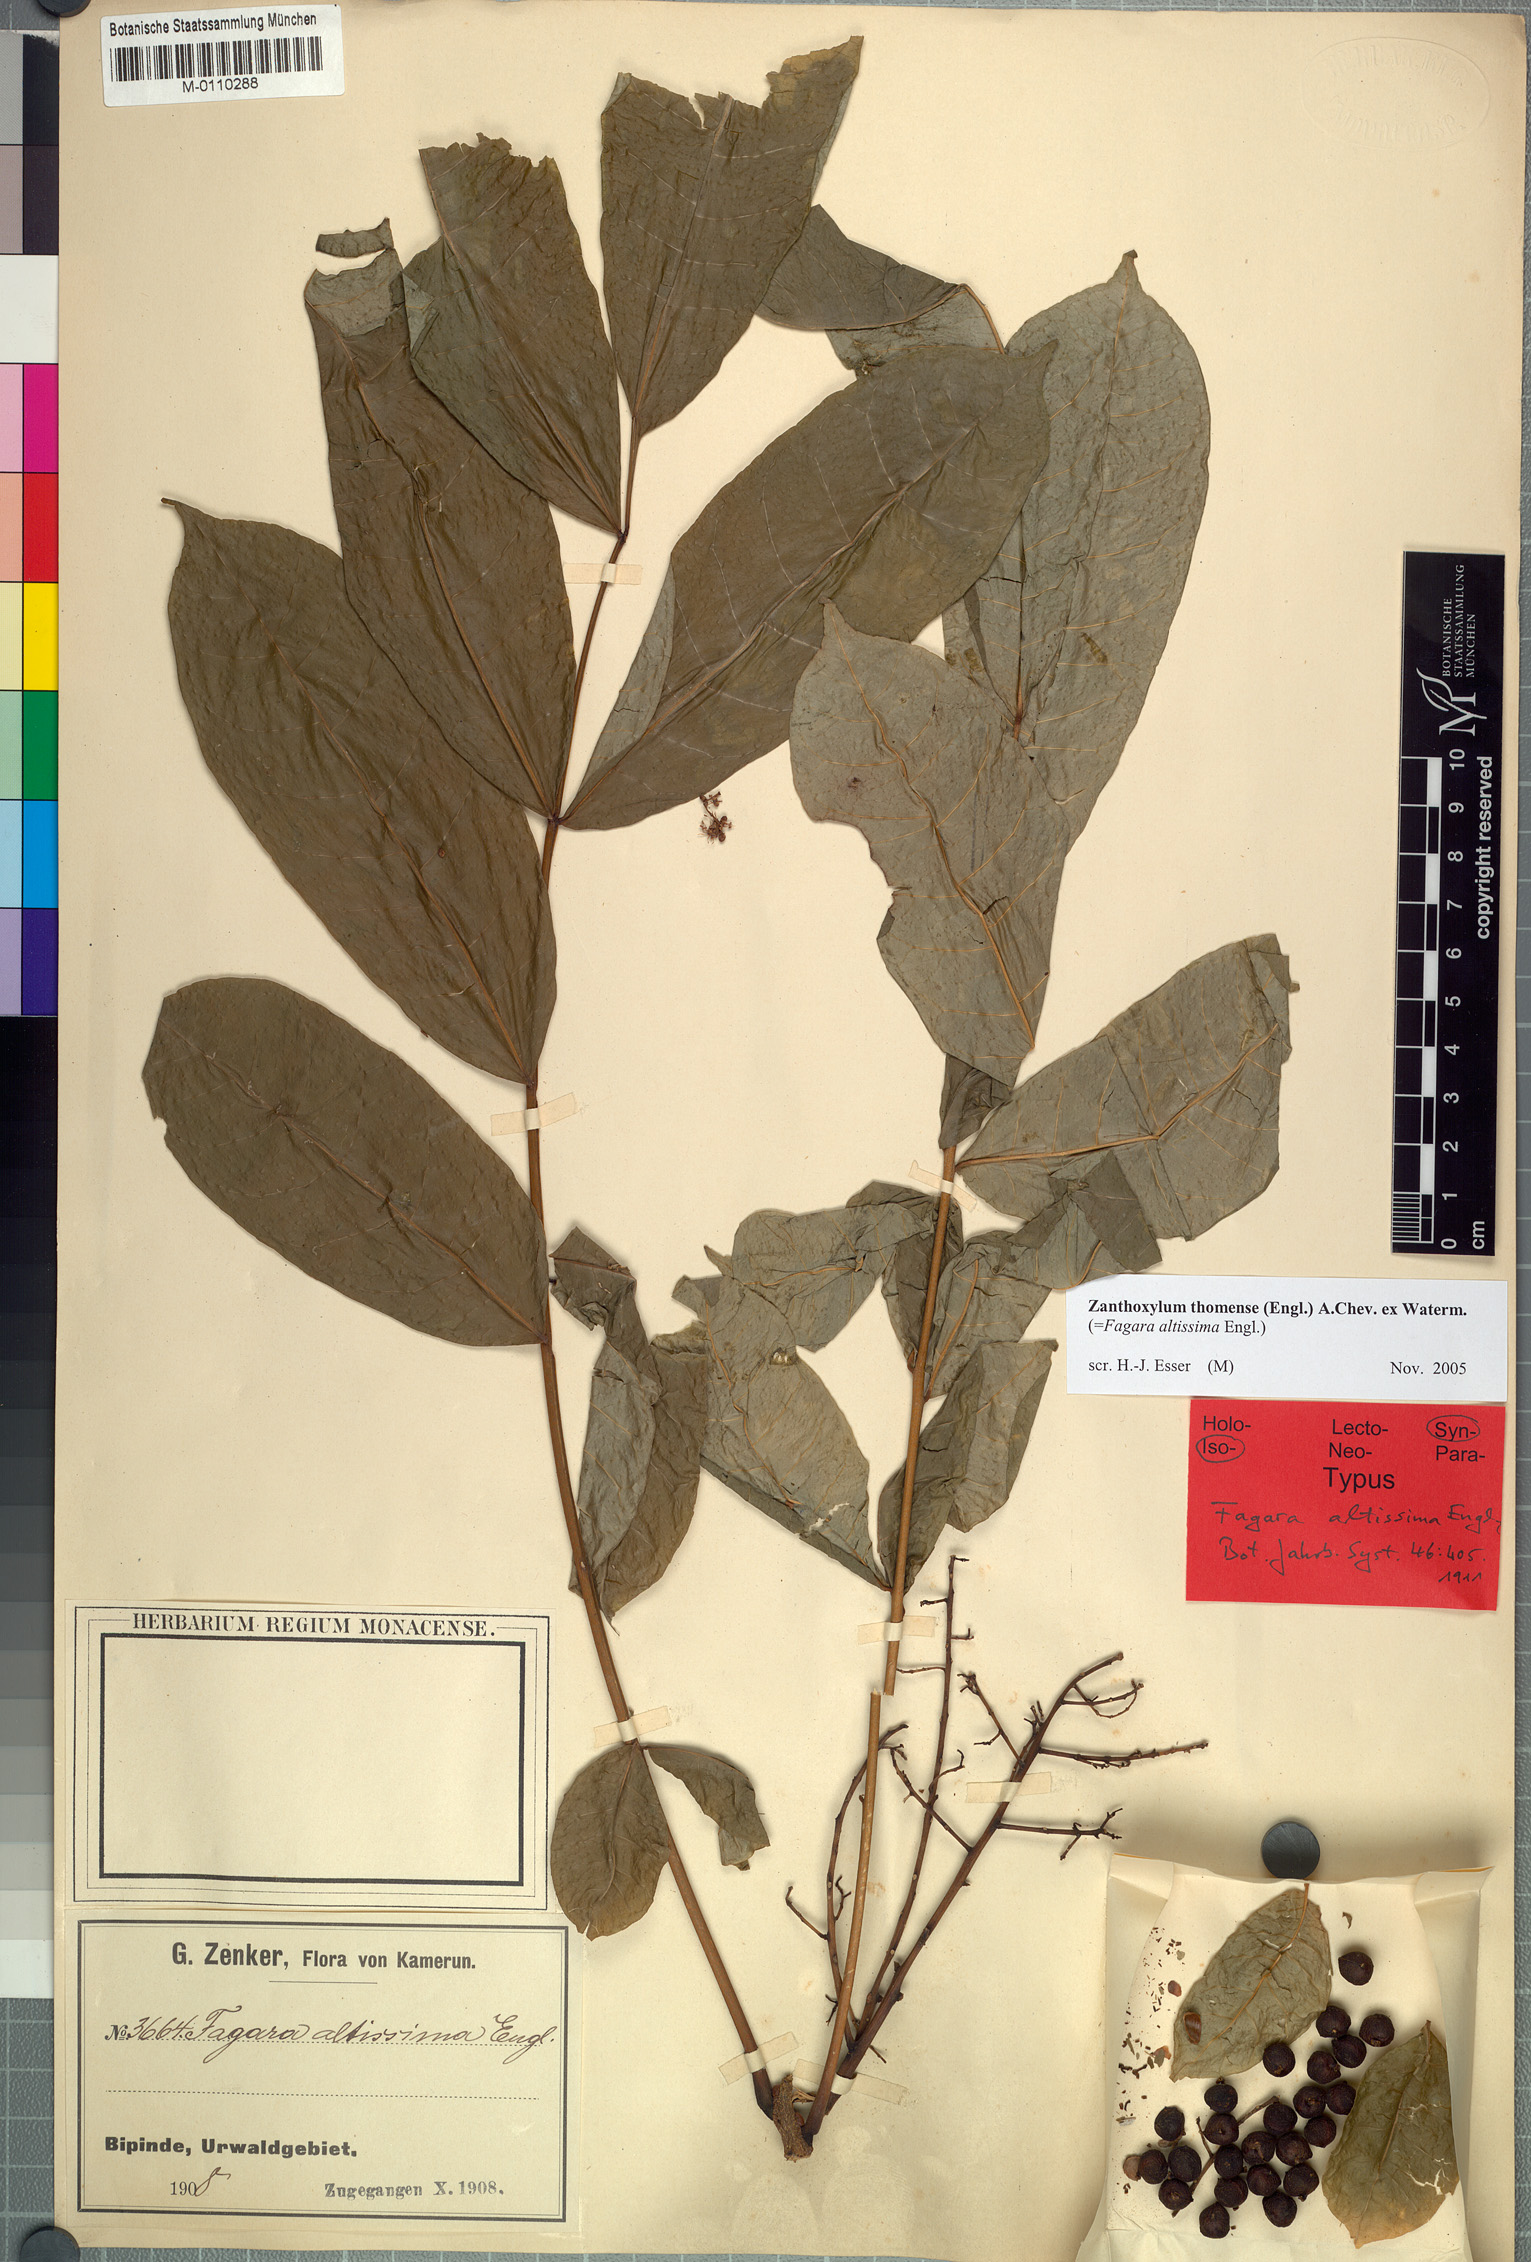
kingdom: Plantae
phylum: Tracheophyta
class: Magnoliopsida
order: Sapindales
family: Rutaceae
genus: Zanthoxylum
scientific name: Zanthoxylum thomense
